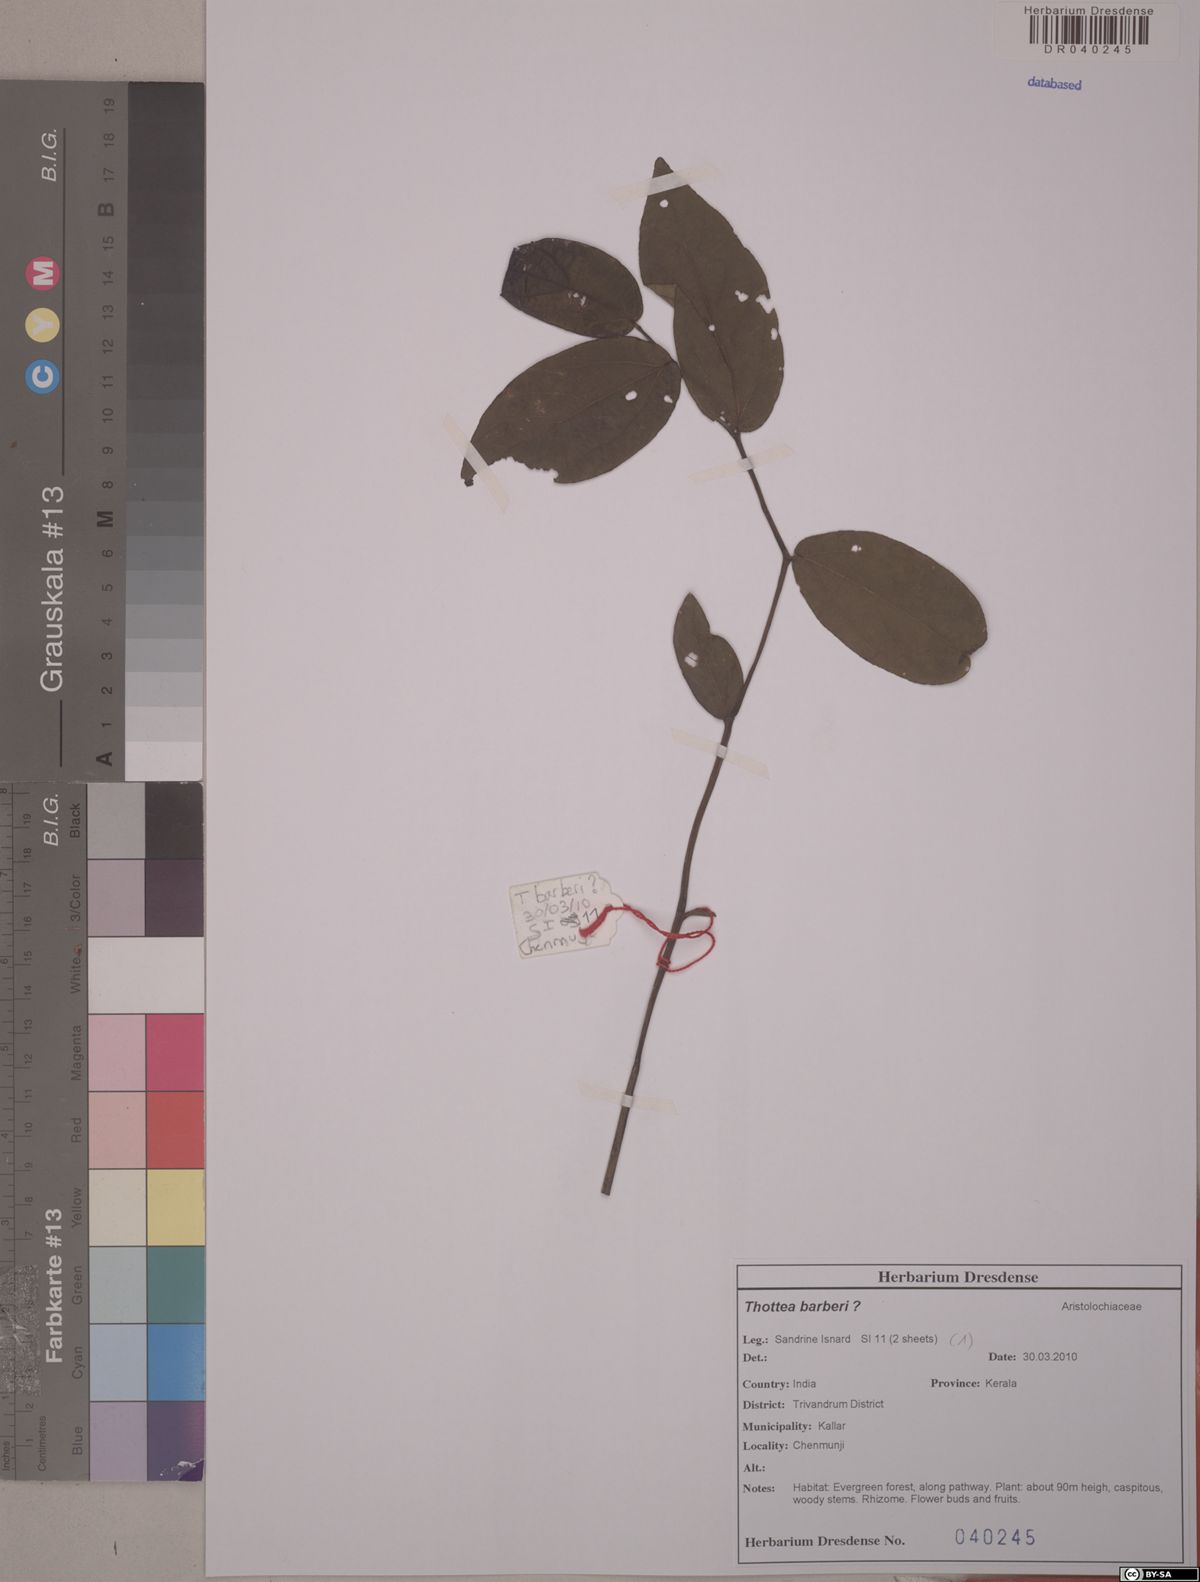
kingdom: Plantae
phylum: Tracheophyta
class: Magnoliopsida
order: Piperales
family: Aristolochiaceae
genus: Thottea
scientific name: Thottea barberi
